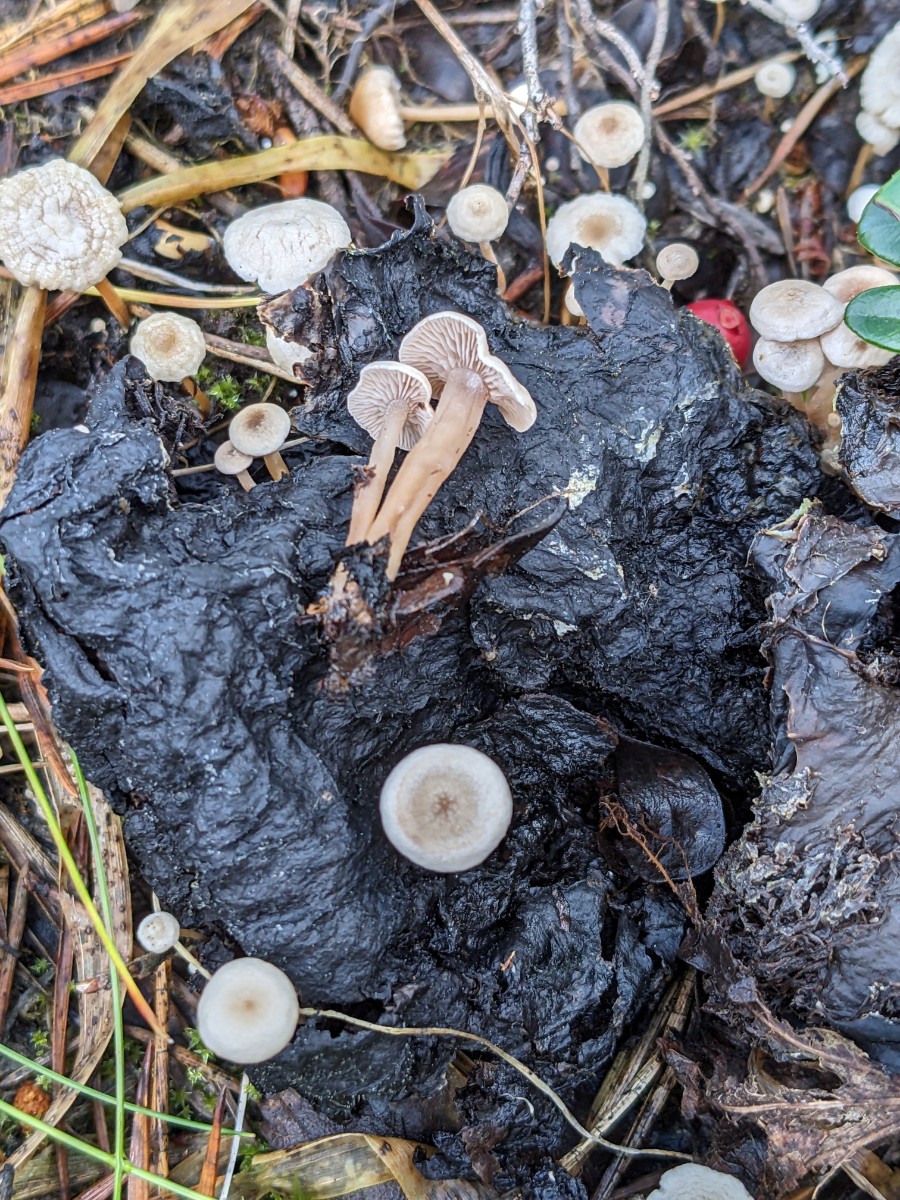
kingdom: Fungi
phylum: Basidiomycota
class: Agaricomycetes
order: Agaricales
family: Tricholomataceae
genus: Collybia
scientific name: Collybia
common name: lighat
